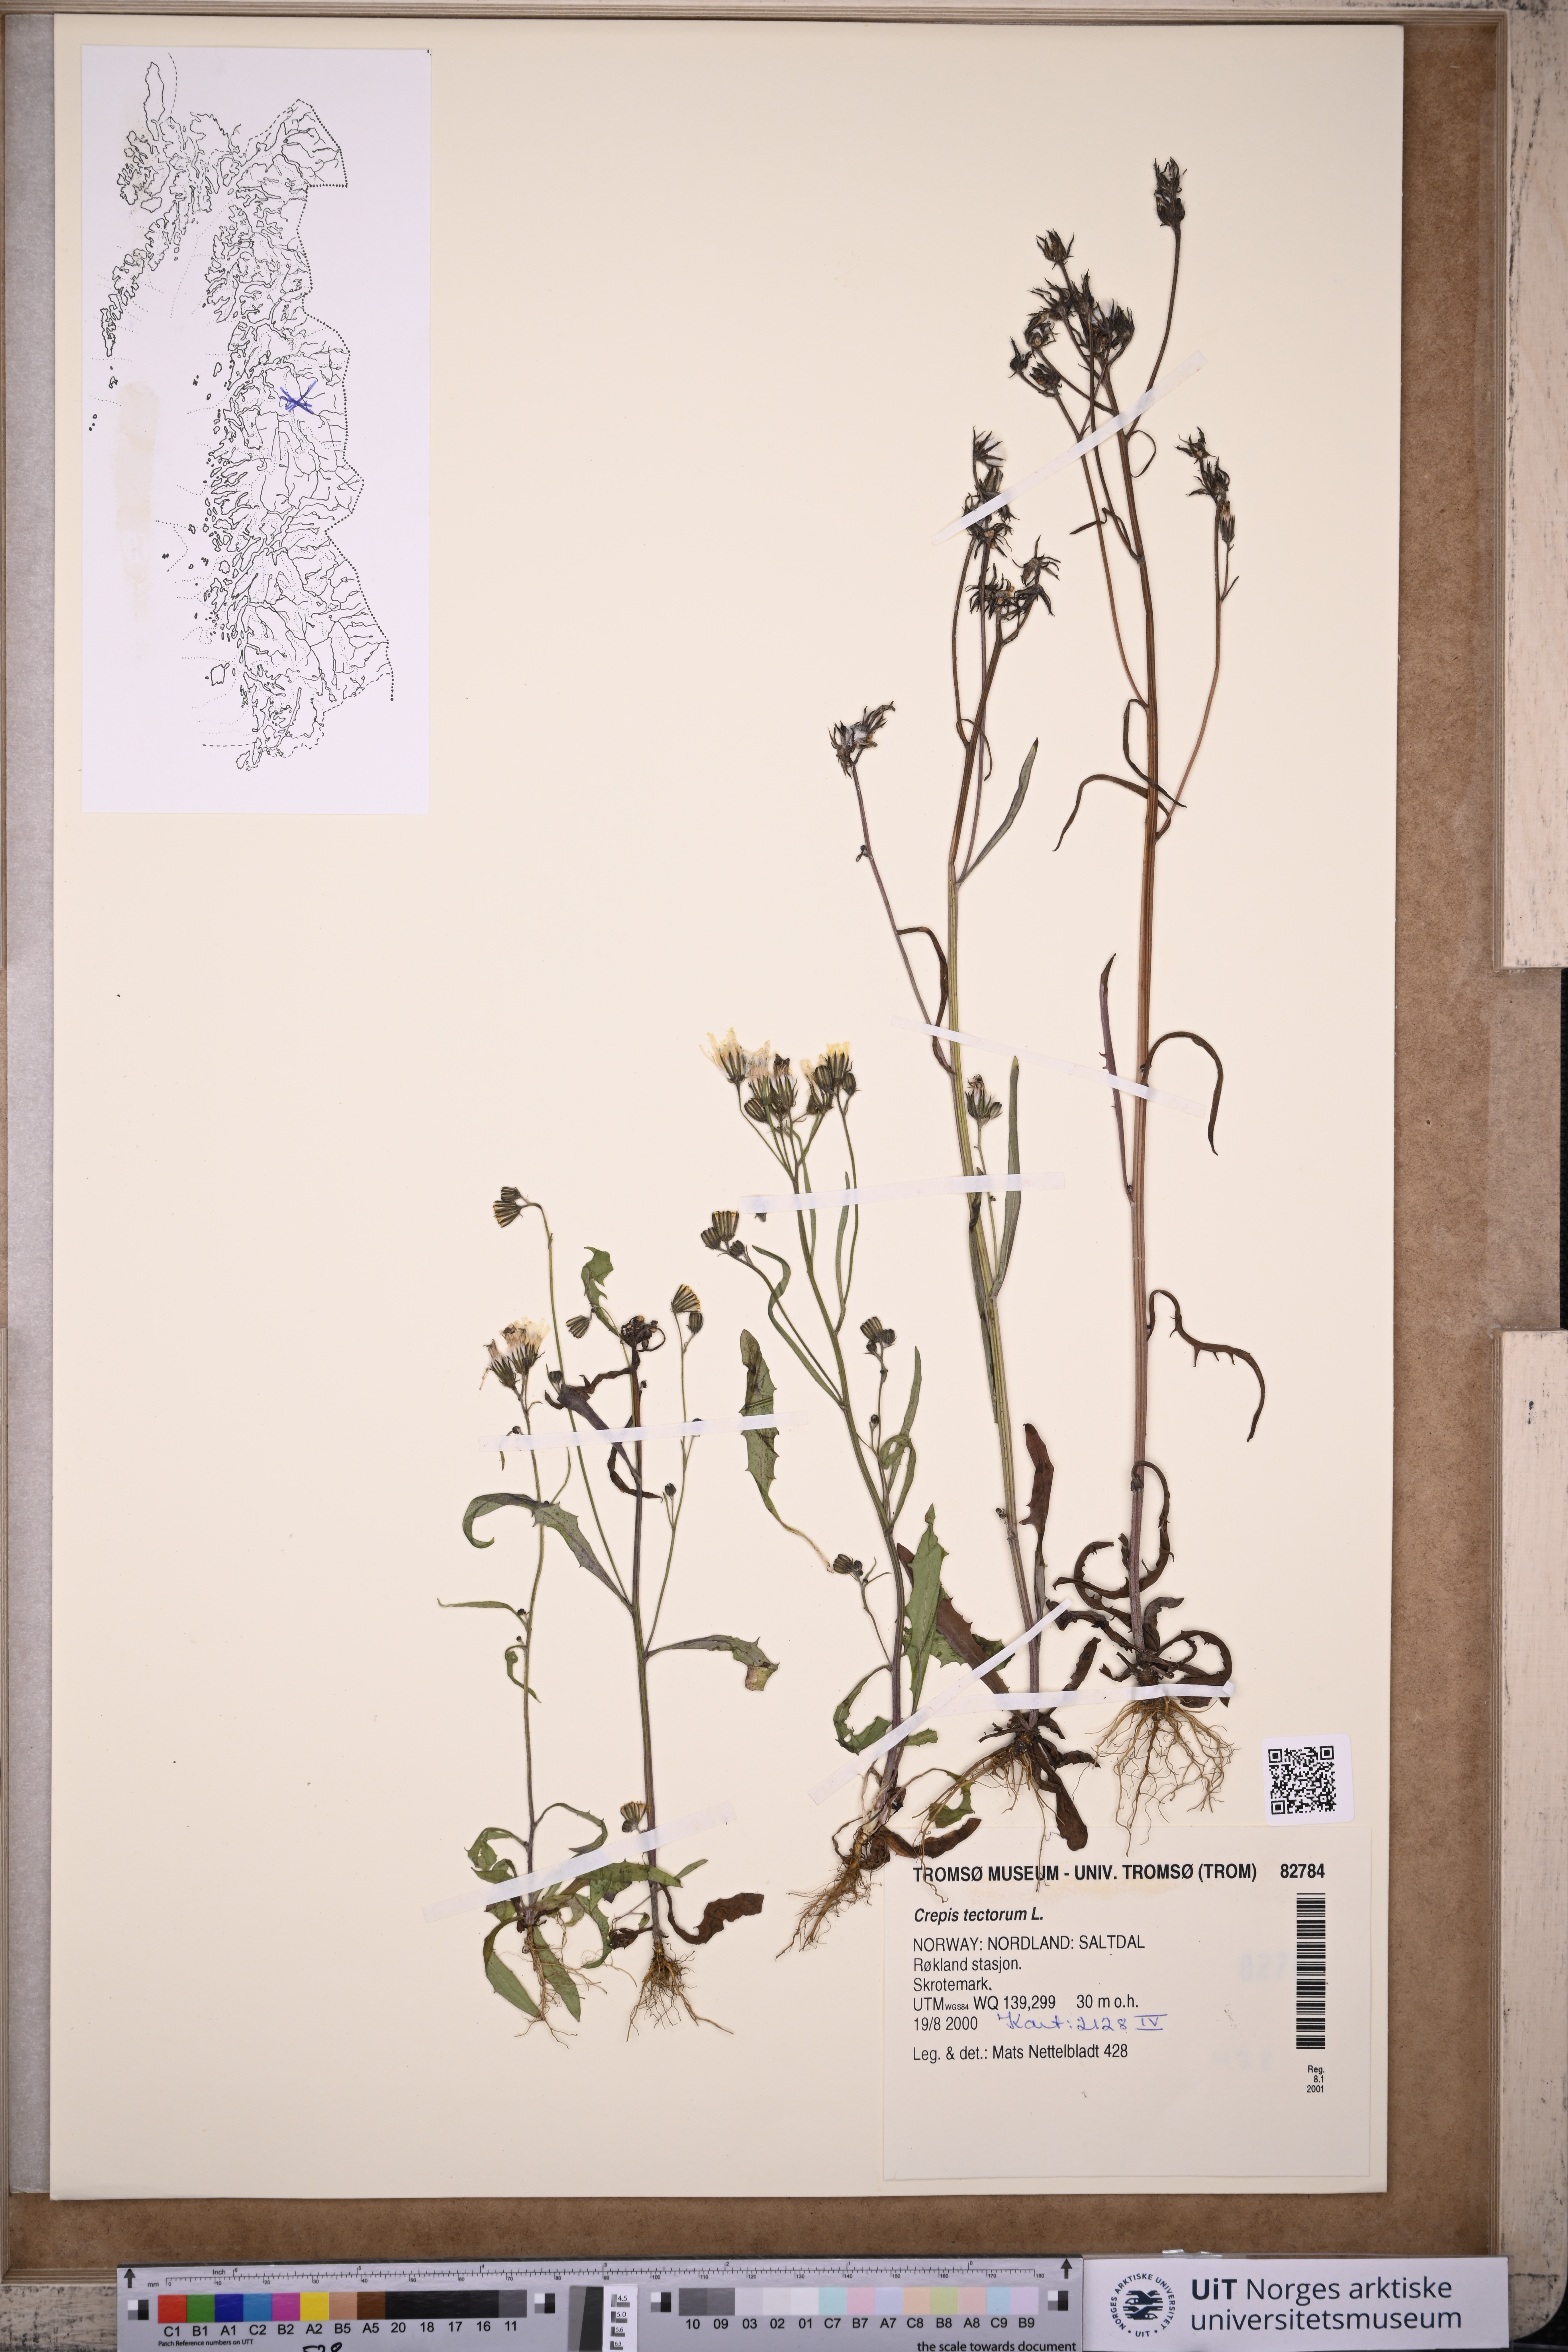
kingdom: Plantae
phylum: Tracheophyta
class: Magnoliopsida
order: Asterales
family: Asteraceae
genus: Crepis
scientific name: Crepis tectorum
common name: Narrow-leaved hawk's-beard
